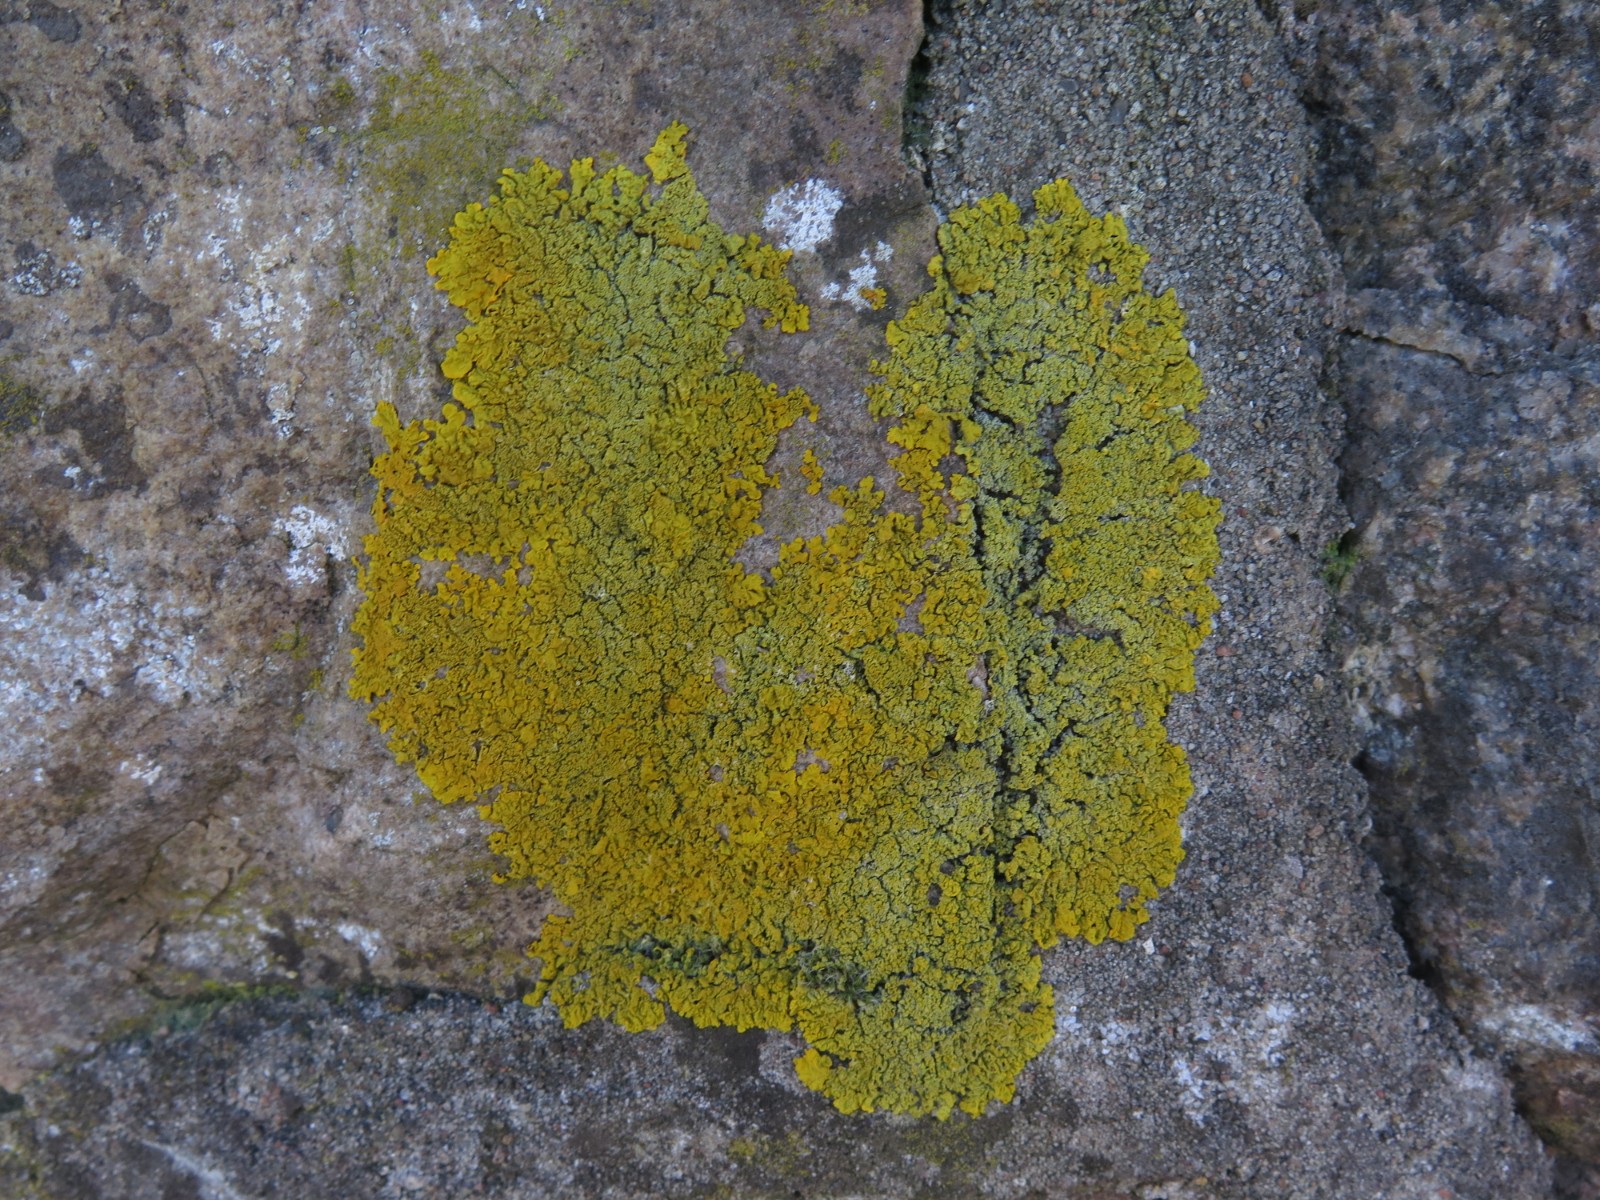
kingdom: Fungi
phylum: Ascomycota
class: Lecanoromycetes
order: Teloschistales
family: Teloschistaceae
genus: Xanthoria
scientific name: Xanthoria calcicola
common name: vortet væggelav
